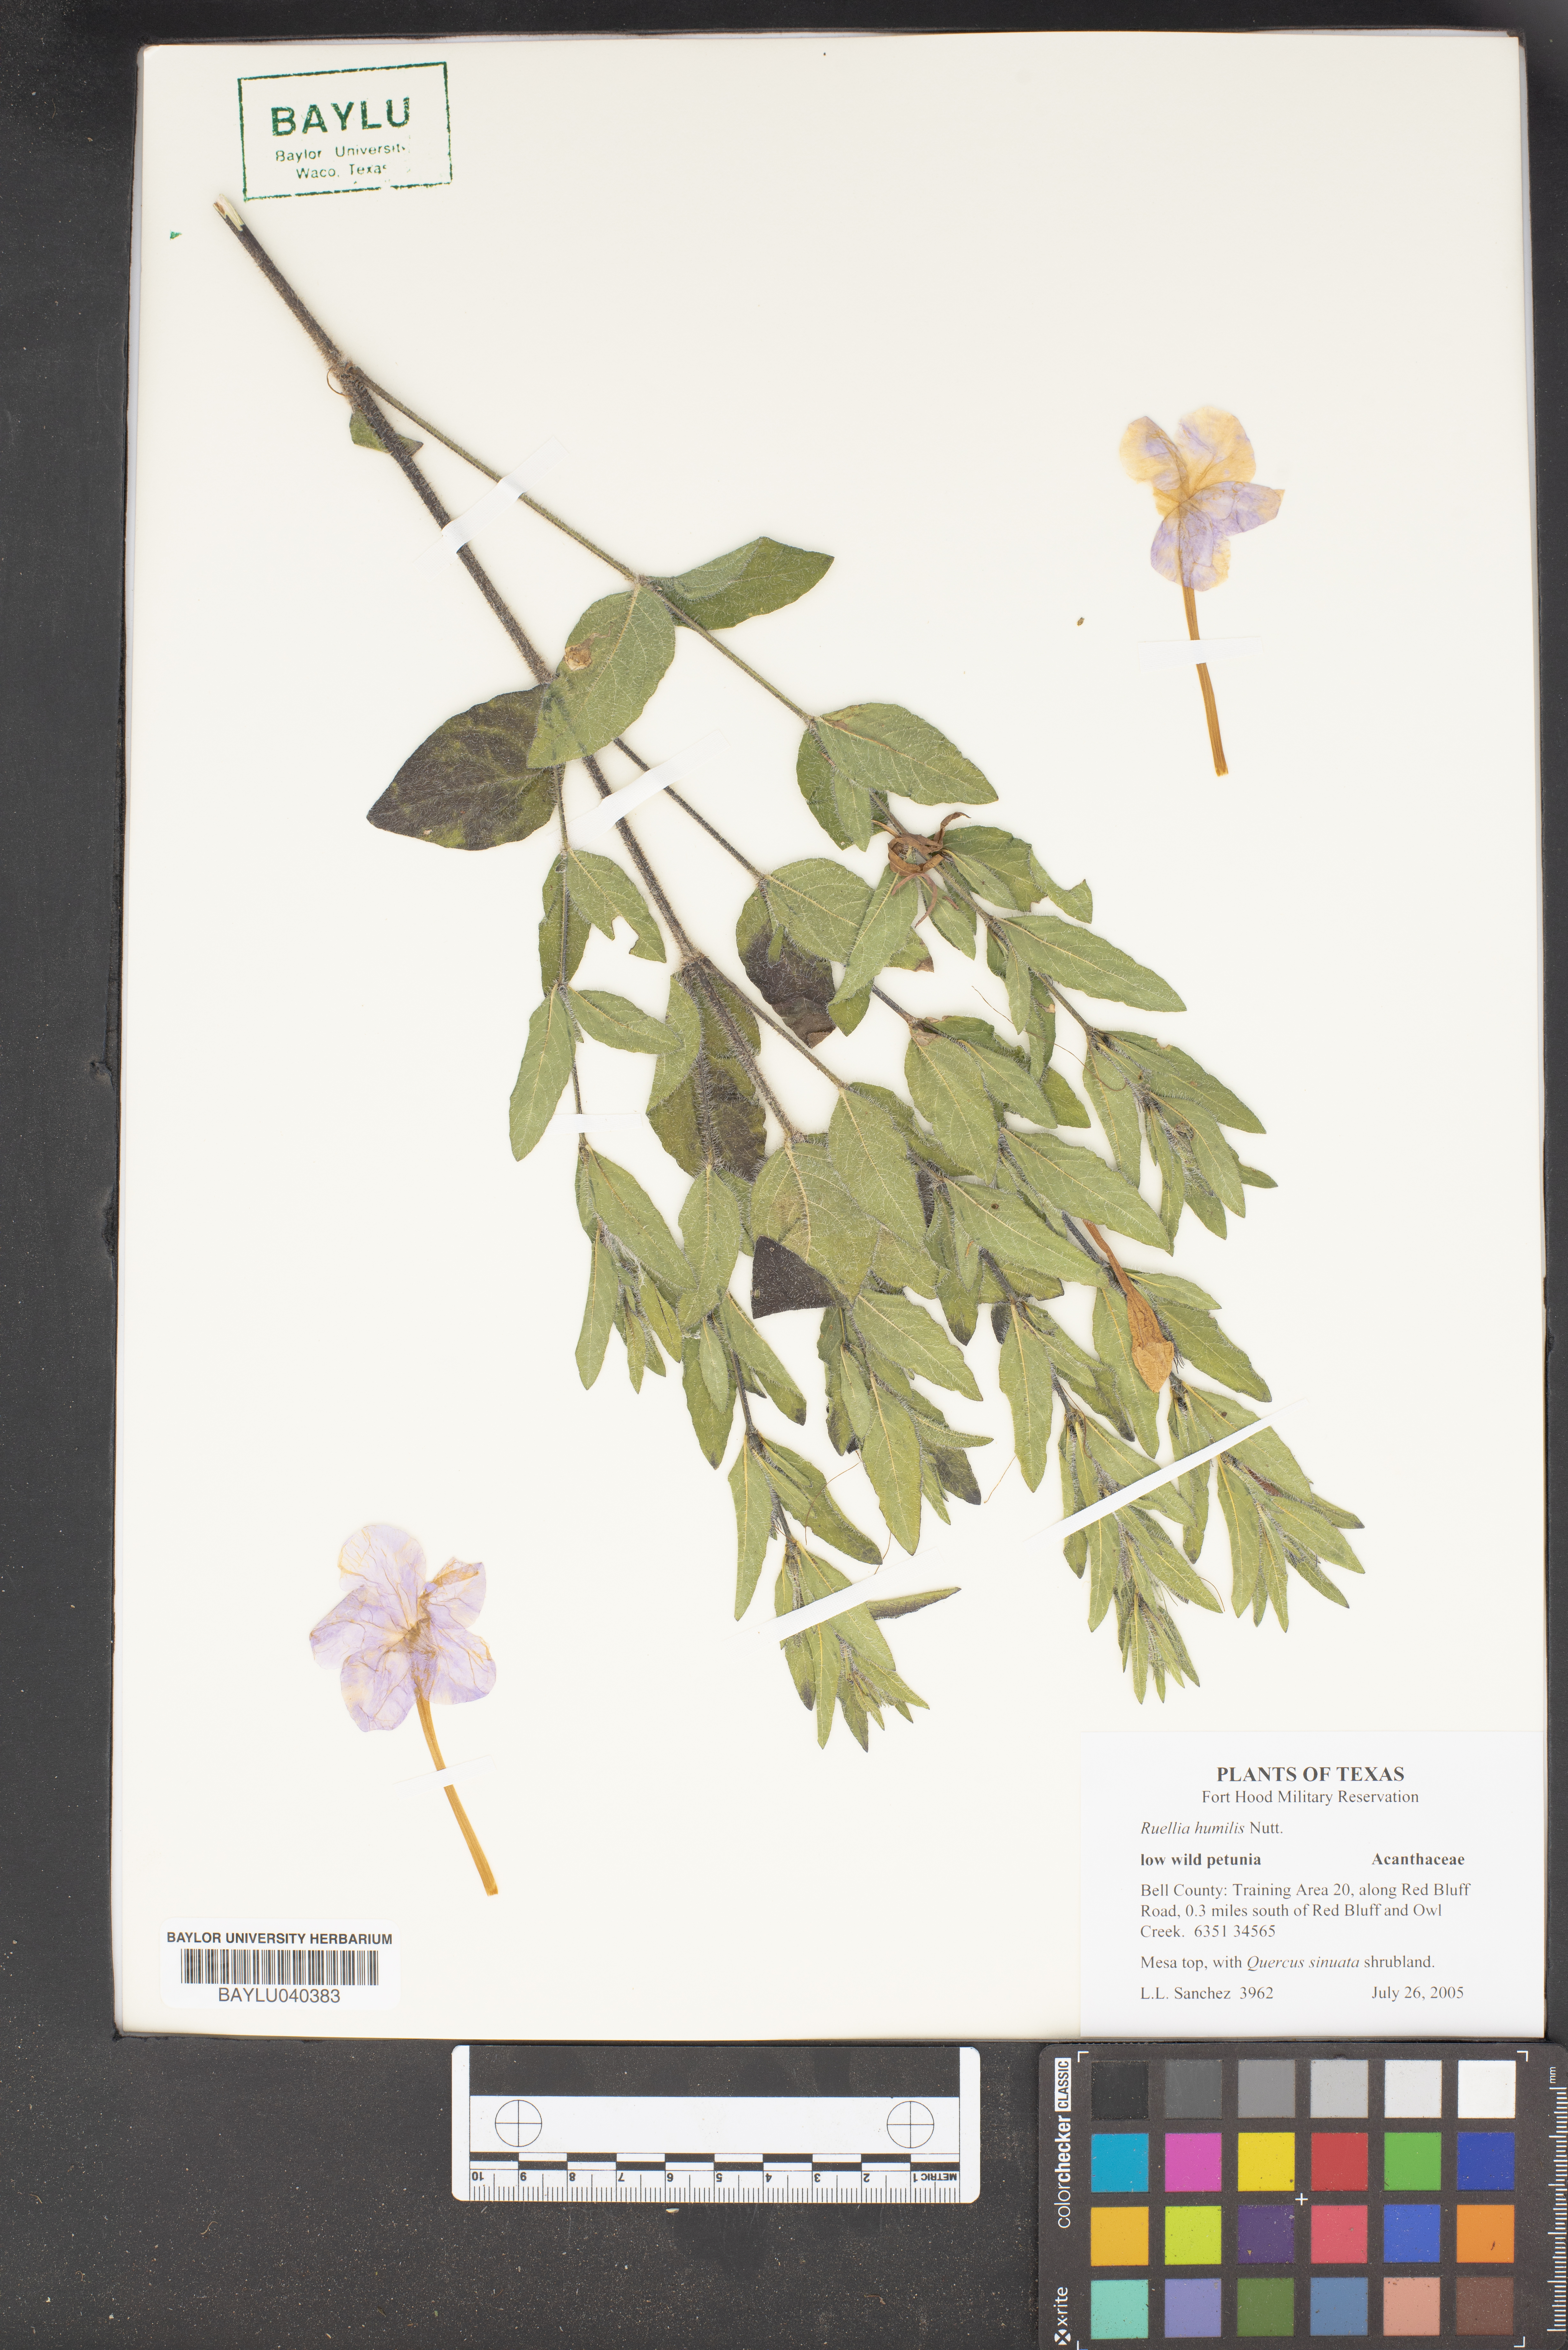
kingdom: Plantae
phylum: Tracheophyta
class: Magnoliopsida
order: Lamiales
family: Acanthaceae
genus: Ruellia
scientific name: Ruellia humilis
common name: Fringe-leaf ruellia
